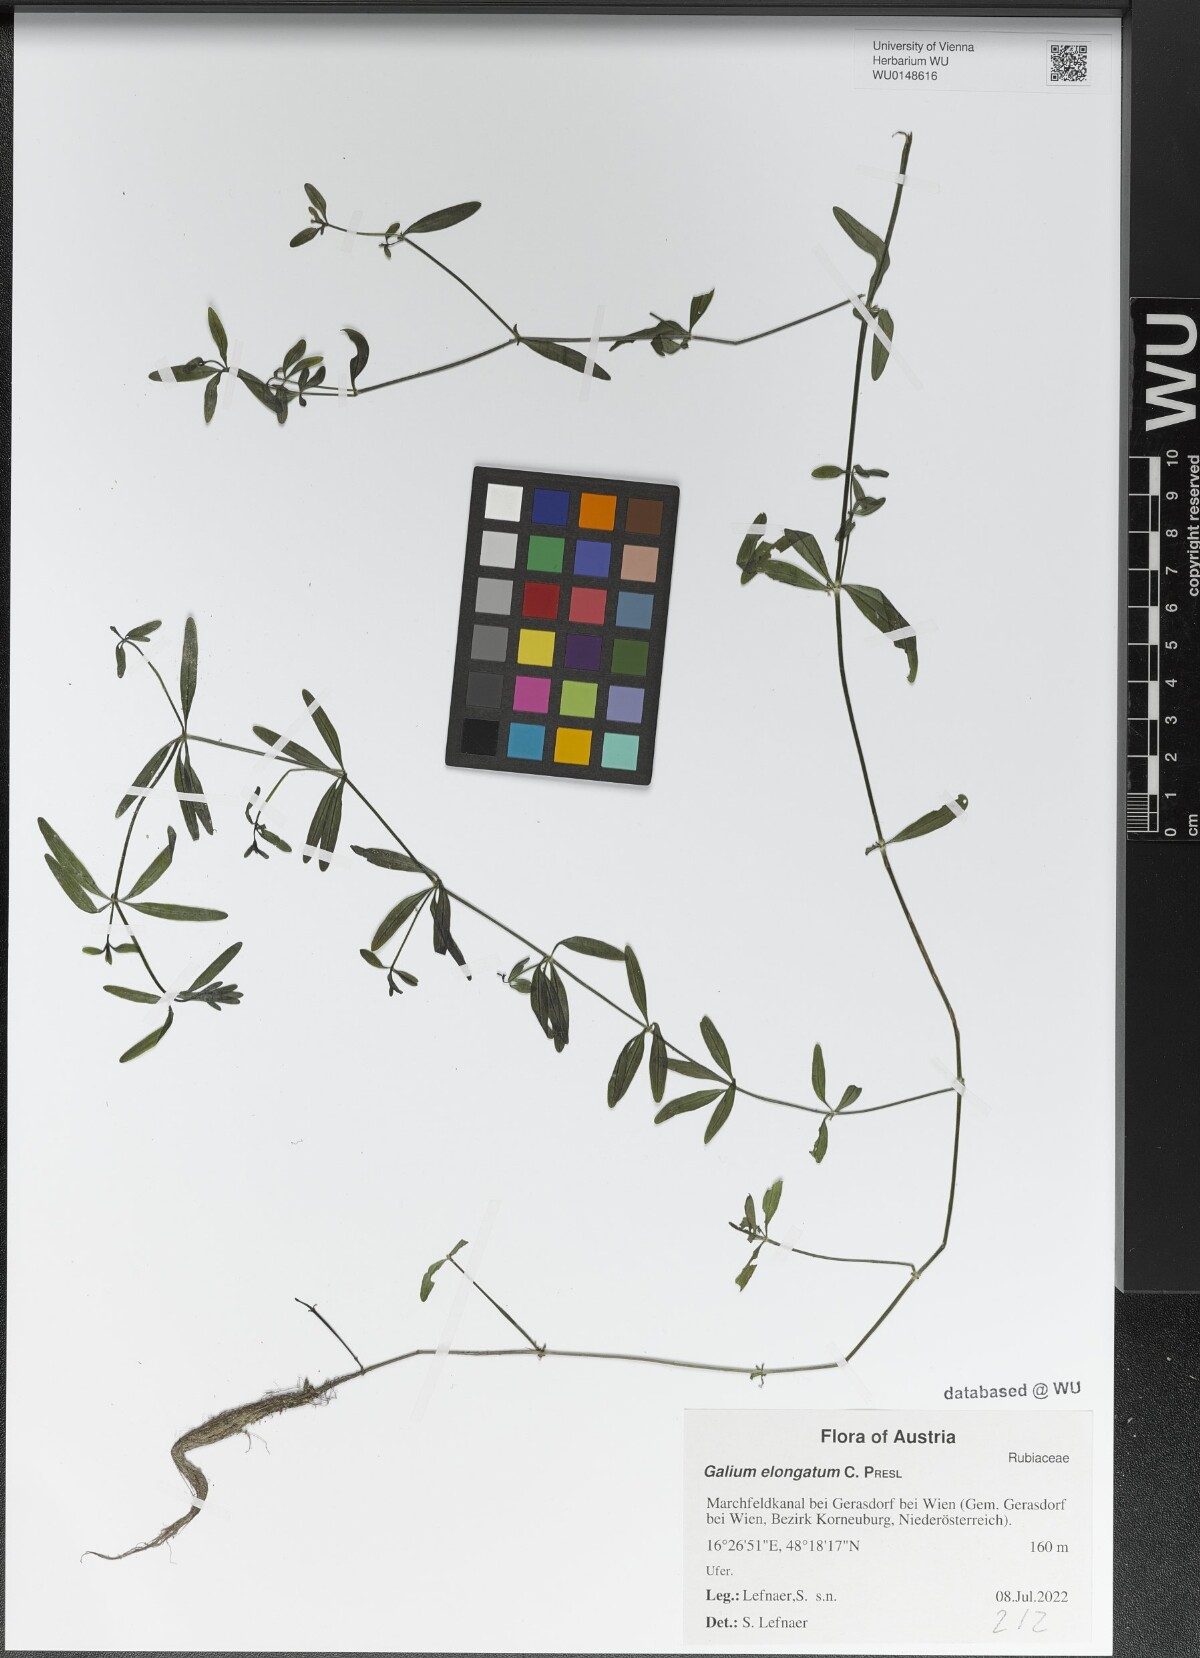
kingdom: Plantae
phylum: Tracheophyta
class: Magnoliopsida
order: Gentianales
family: Rubiaceae
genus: Galium
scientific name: Galium elongatum
